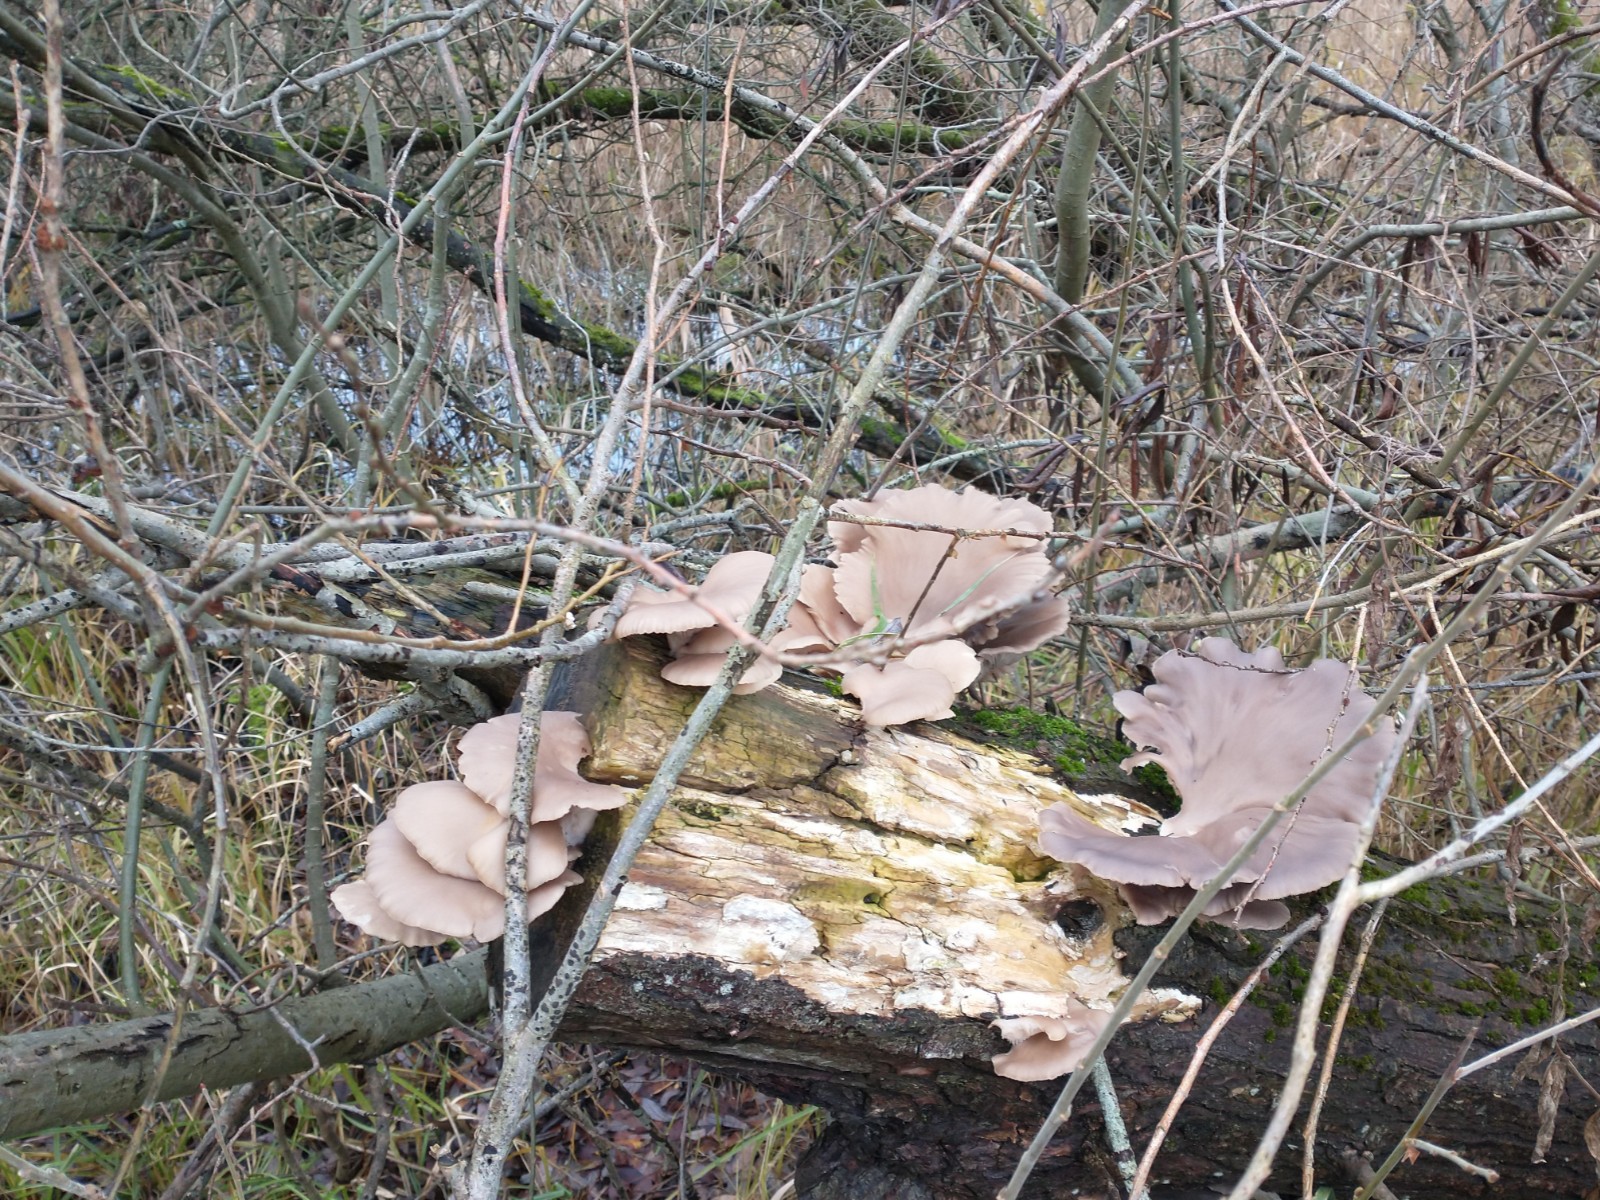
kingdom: Fungi
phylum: Basidiomycota
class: Agaricomycetes
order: Agaricales
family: Pleurotaceae
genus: Pleurotus
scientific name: Pleurotus ostreatus
